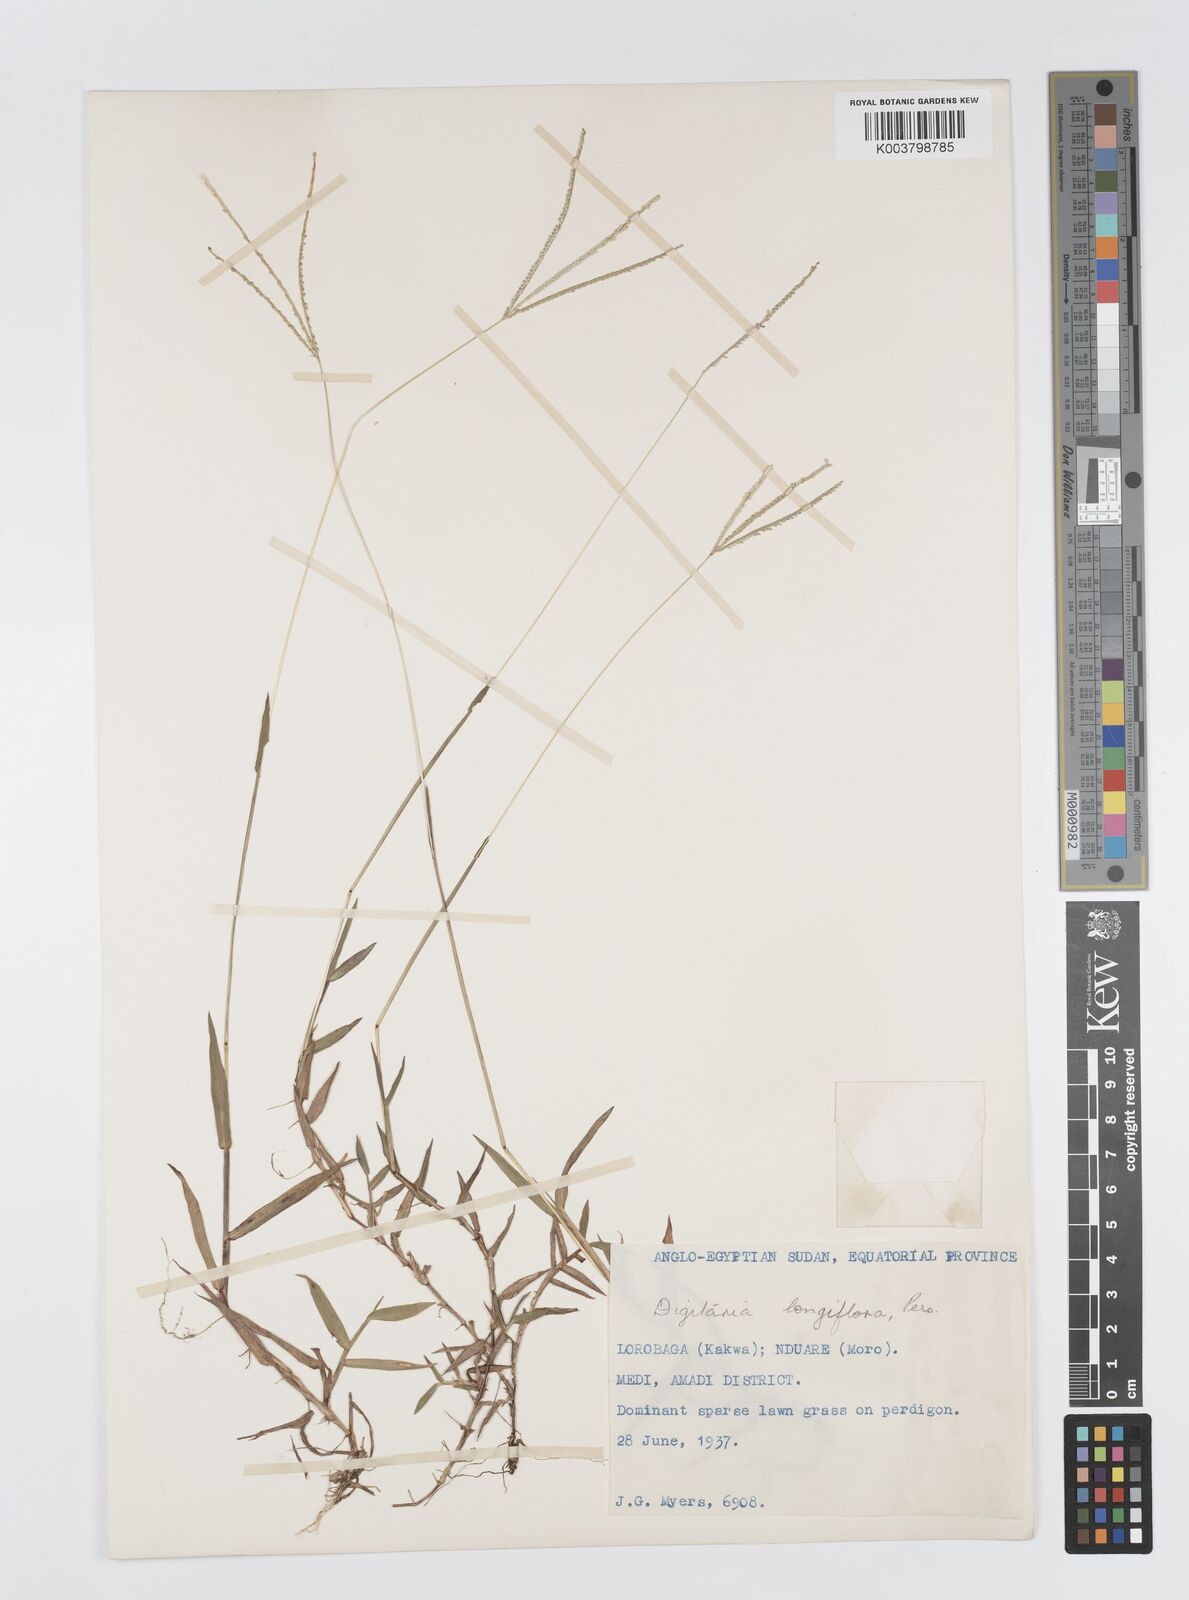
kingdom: Plantae
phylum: Tracheophyta
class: Liliopsida
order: Poales
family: Poaceae
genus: Digitaria
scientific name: Digitaria longiflora
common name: Wire crabgrass
